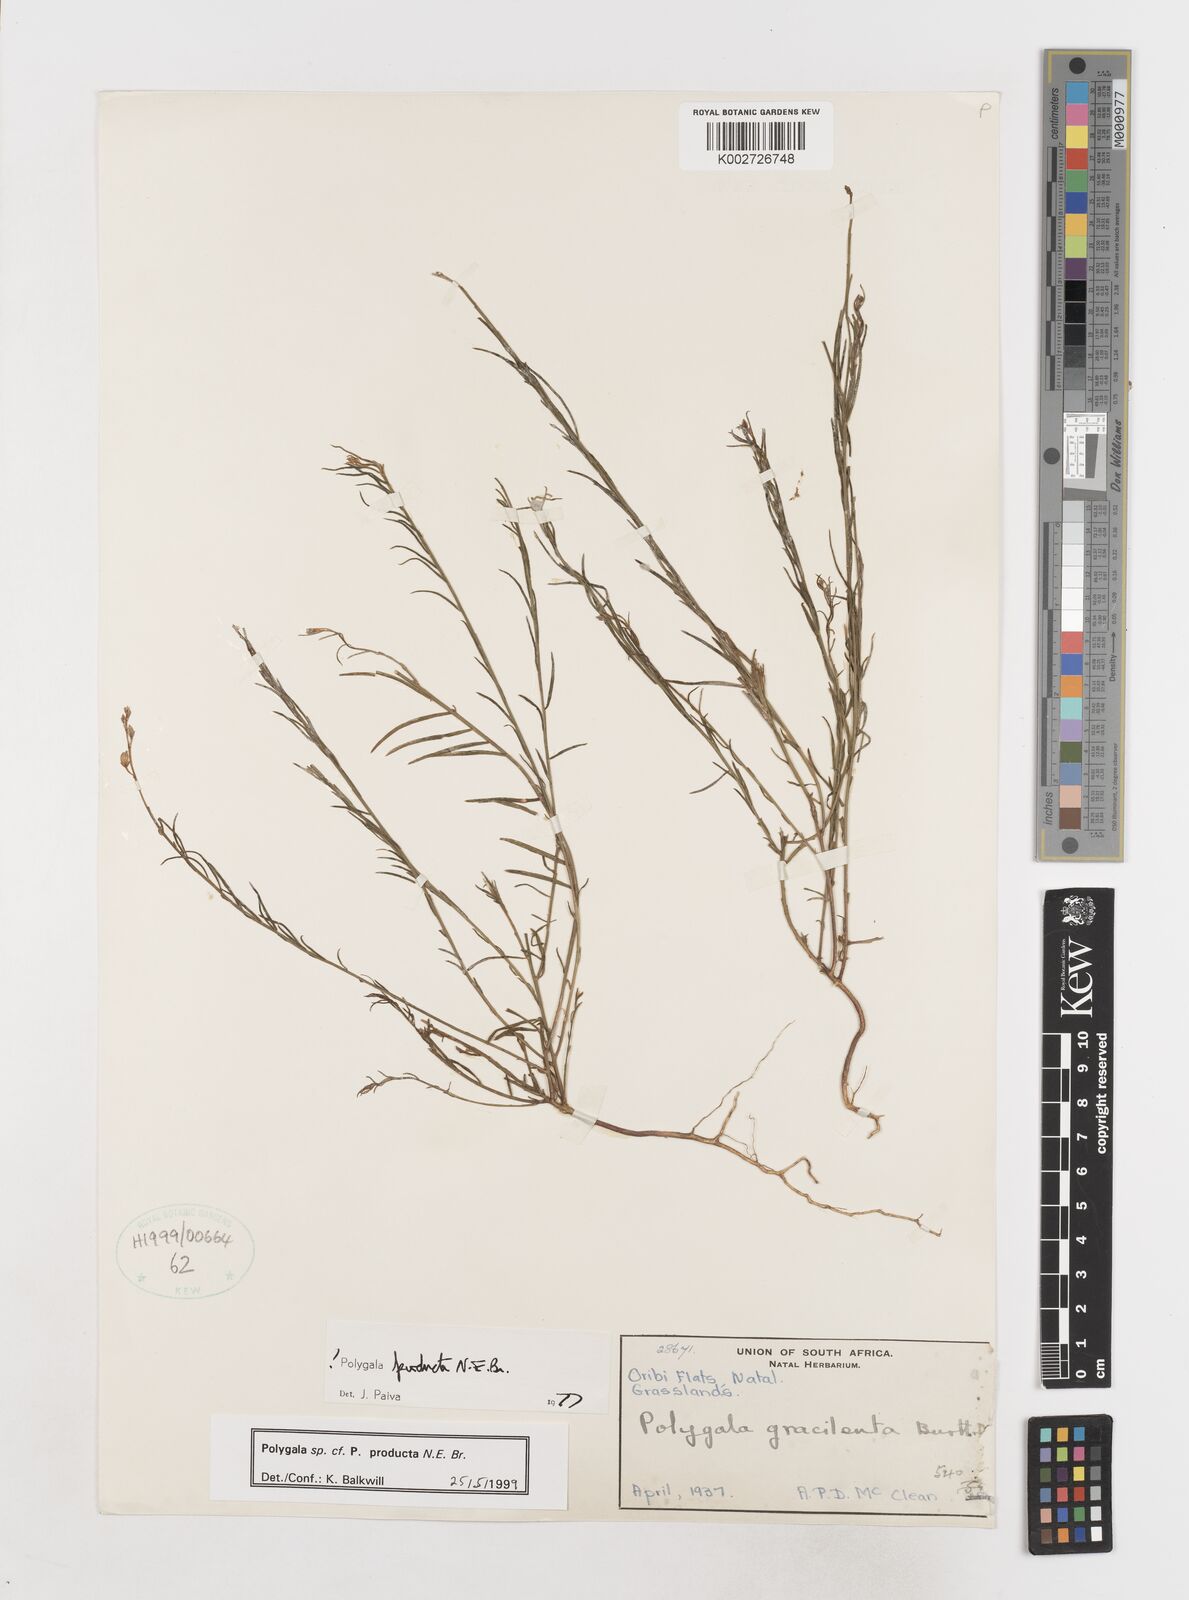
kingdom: Plantae
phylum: Tracheophyta
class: Magnoliopsida
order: Fabales
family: Polygalaceae
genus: Polygala
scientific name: Polygala producta
